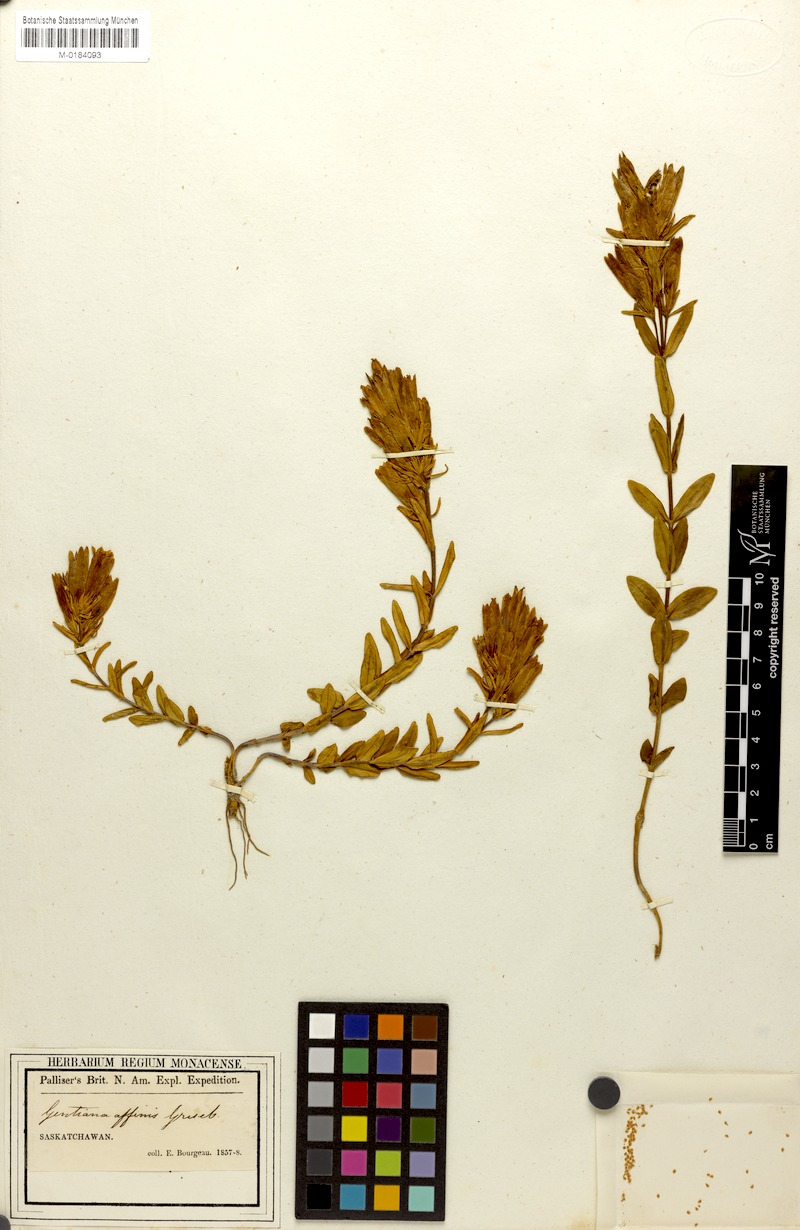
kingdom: Plantae
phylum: Tracheophyta
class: Magnoliopsida
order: Gentianales
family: Gentianaceae
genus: Gentiana
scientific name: Gentiana affinis
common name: Rocky mountain gentian
